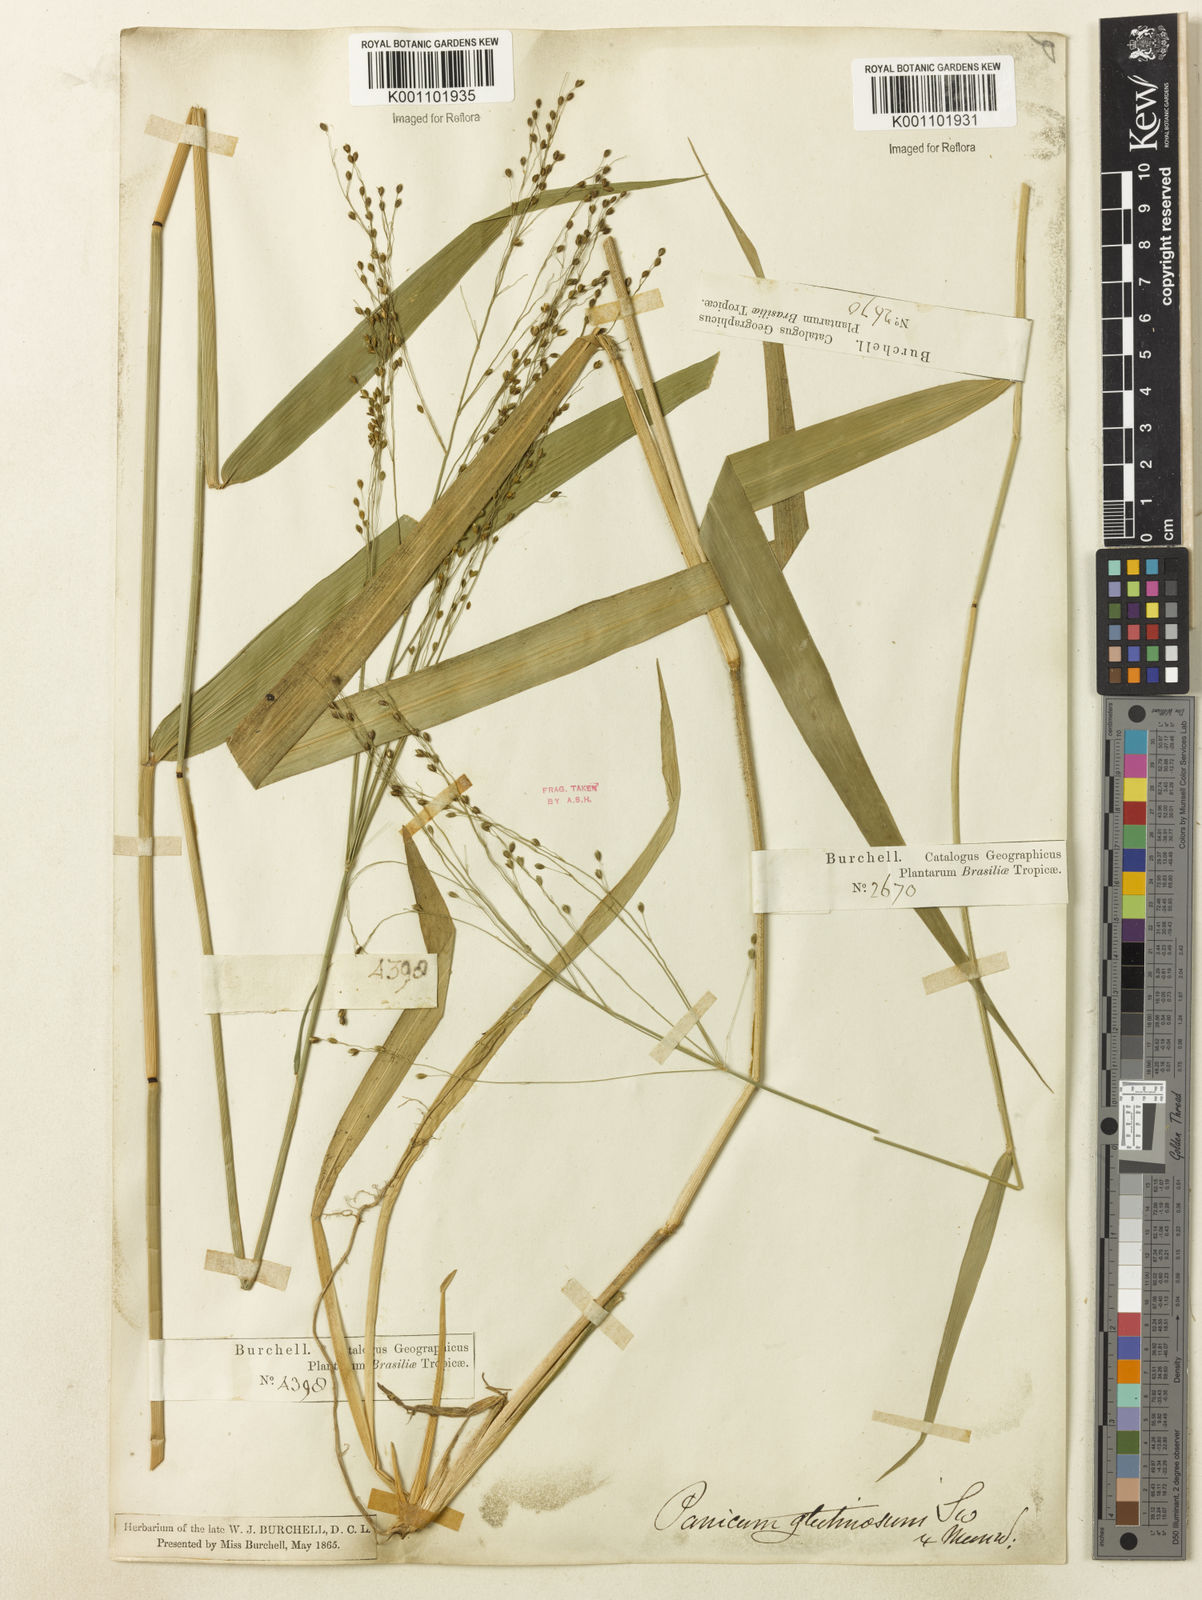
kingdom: Plantae
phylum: Tracheophyta
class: Liliopsida
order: Poales
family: Poaceae
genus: Homolepis
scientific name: Homolepis glutinosa
